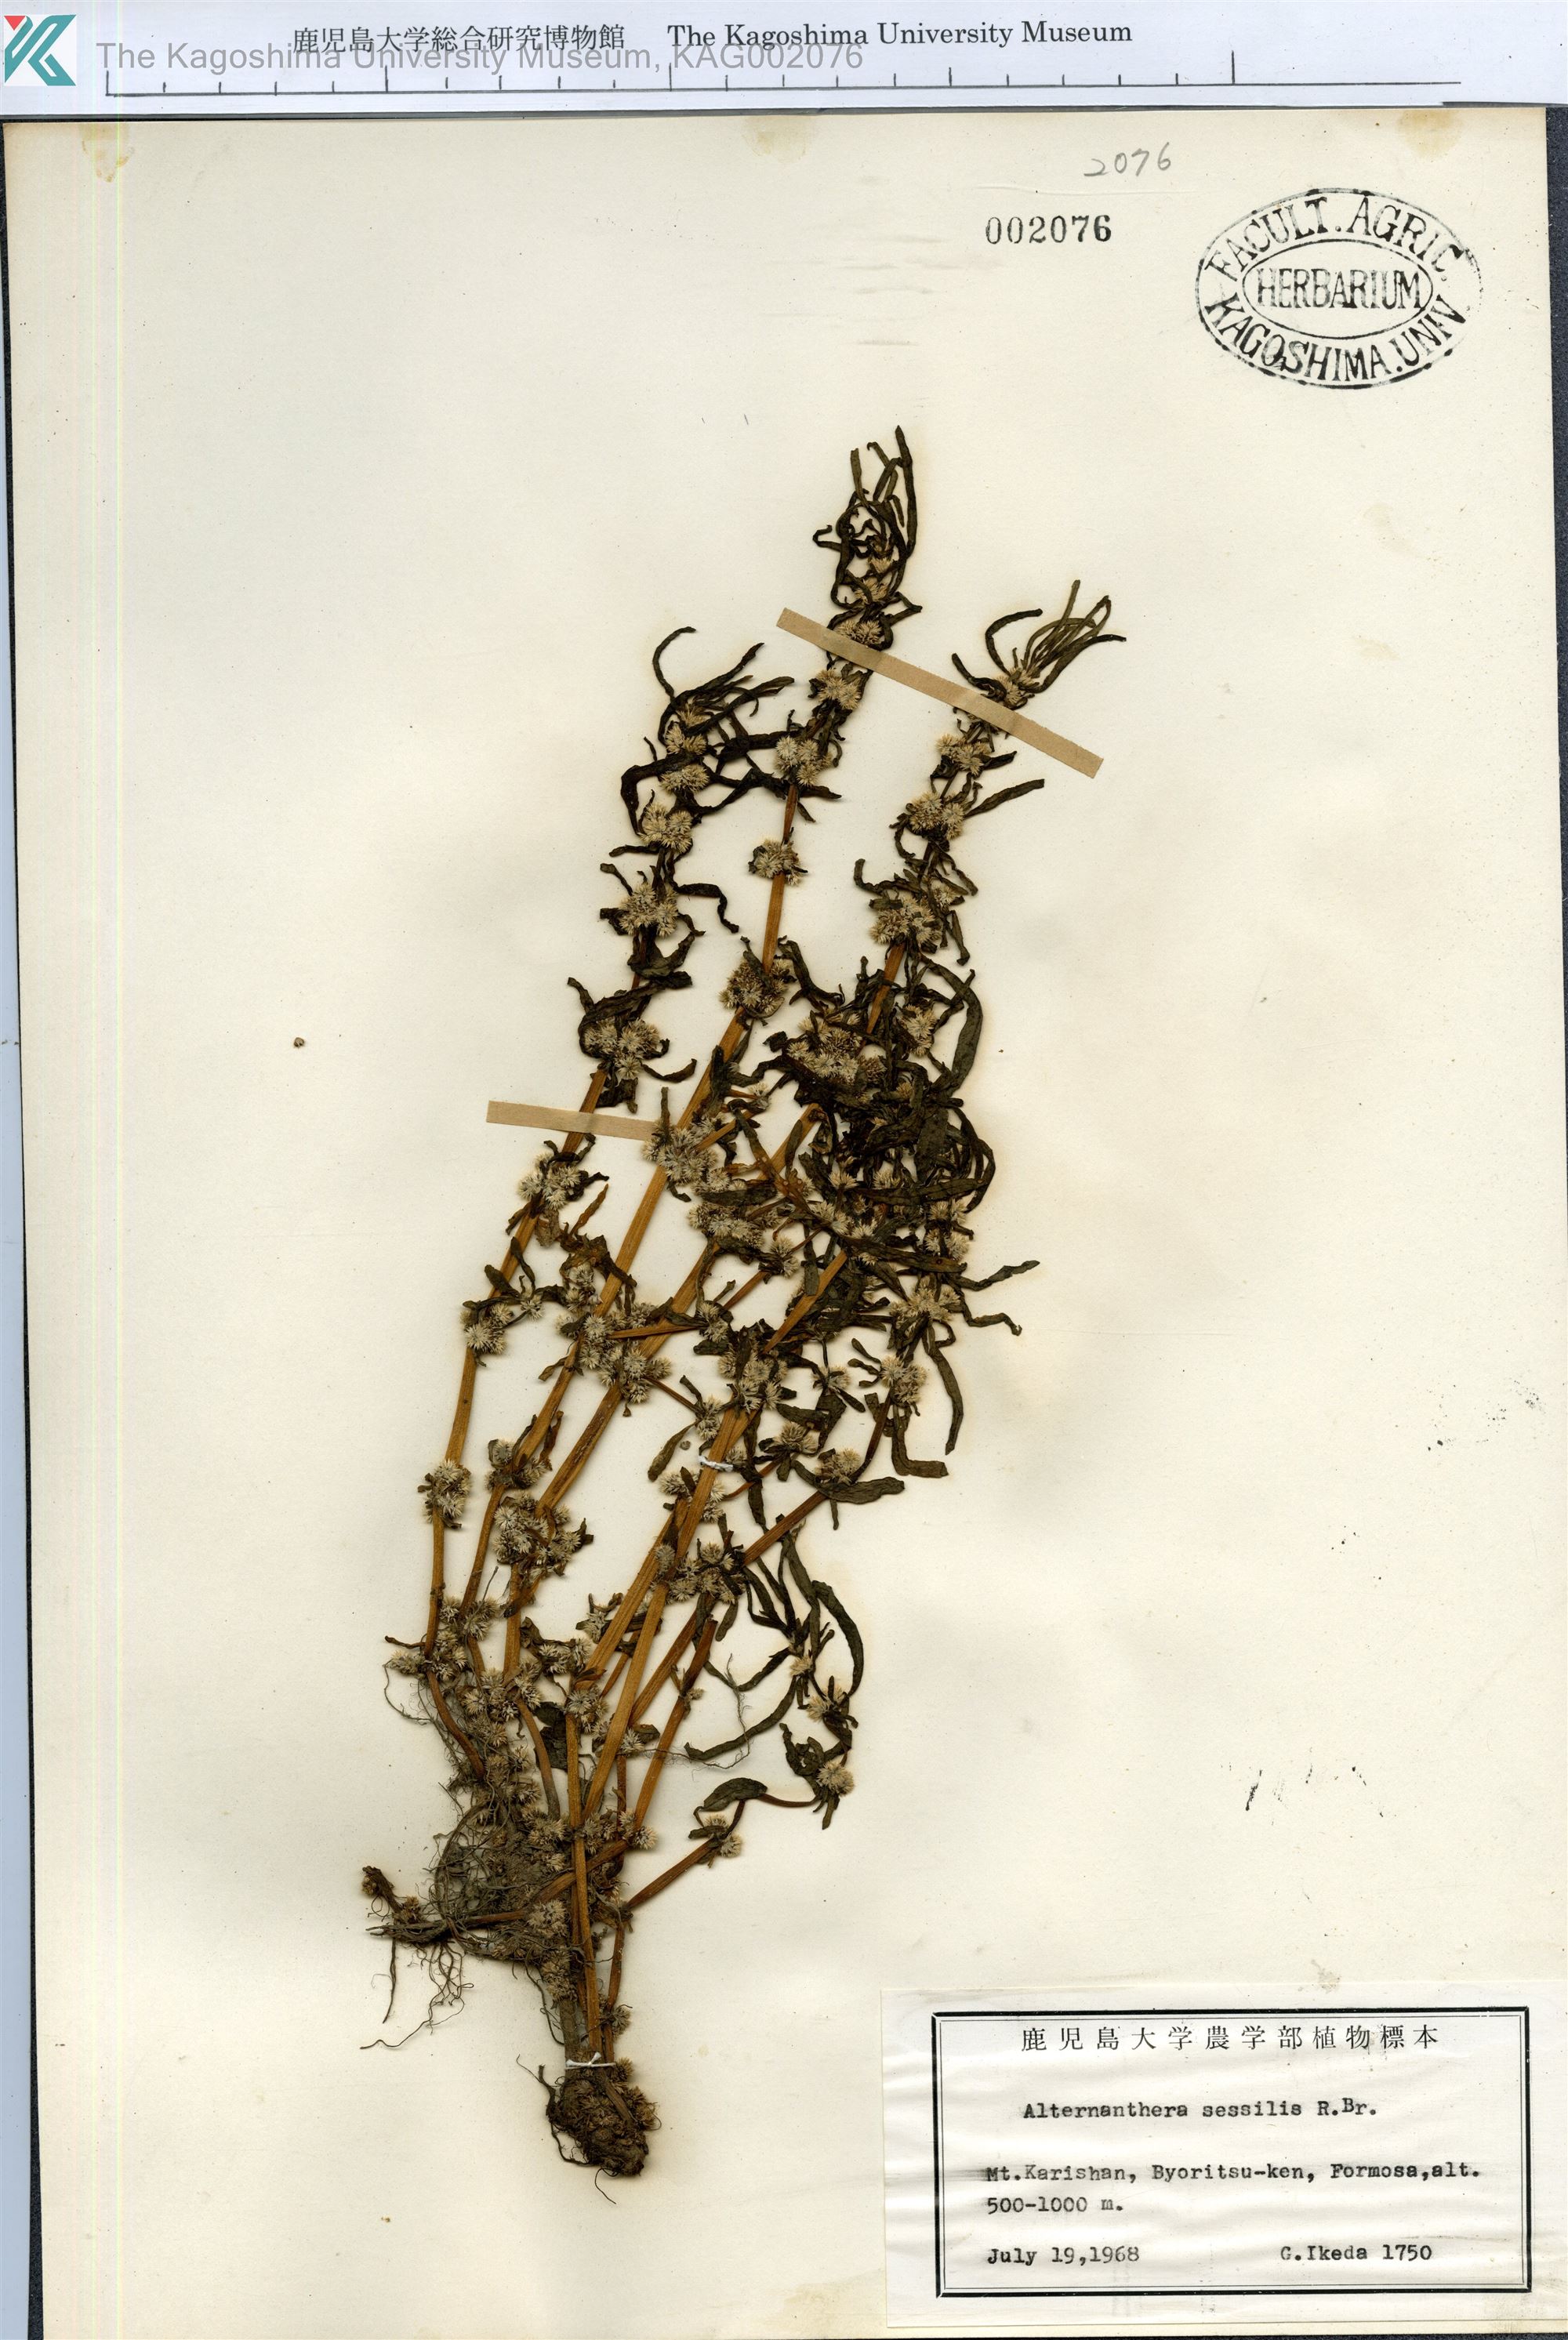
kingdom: Plantae
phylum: Tracheophyta
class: Magnoliopsida
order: Caryophyllales
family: Amaranthaceae
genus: Alternanthera
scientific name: Alternanthera sessilis
